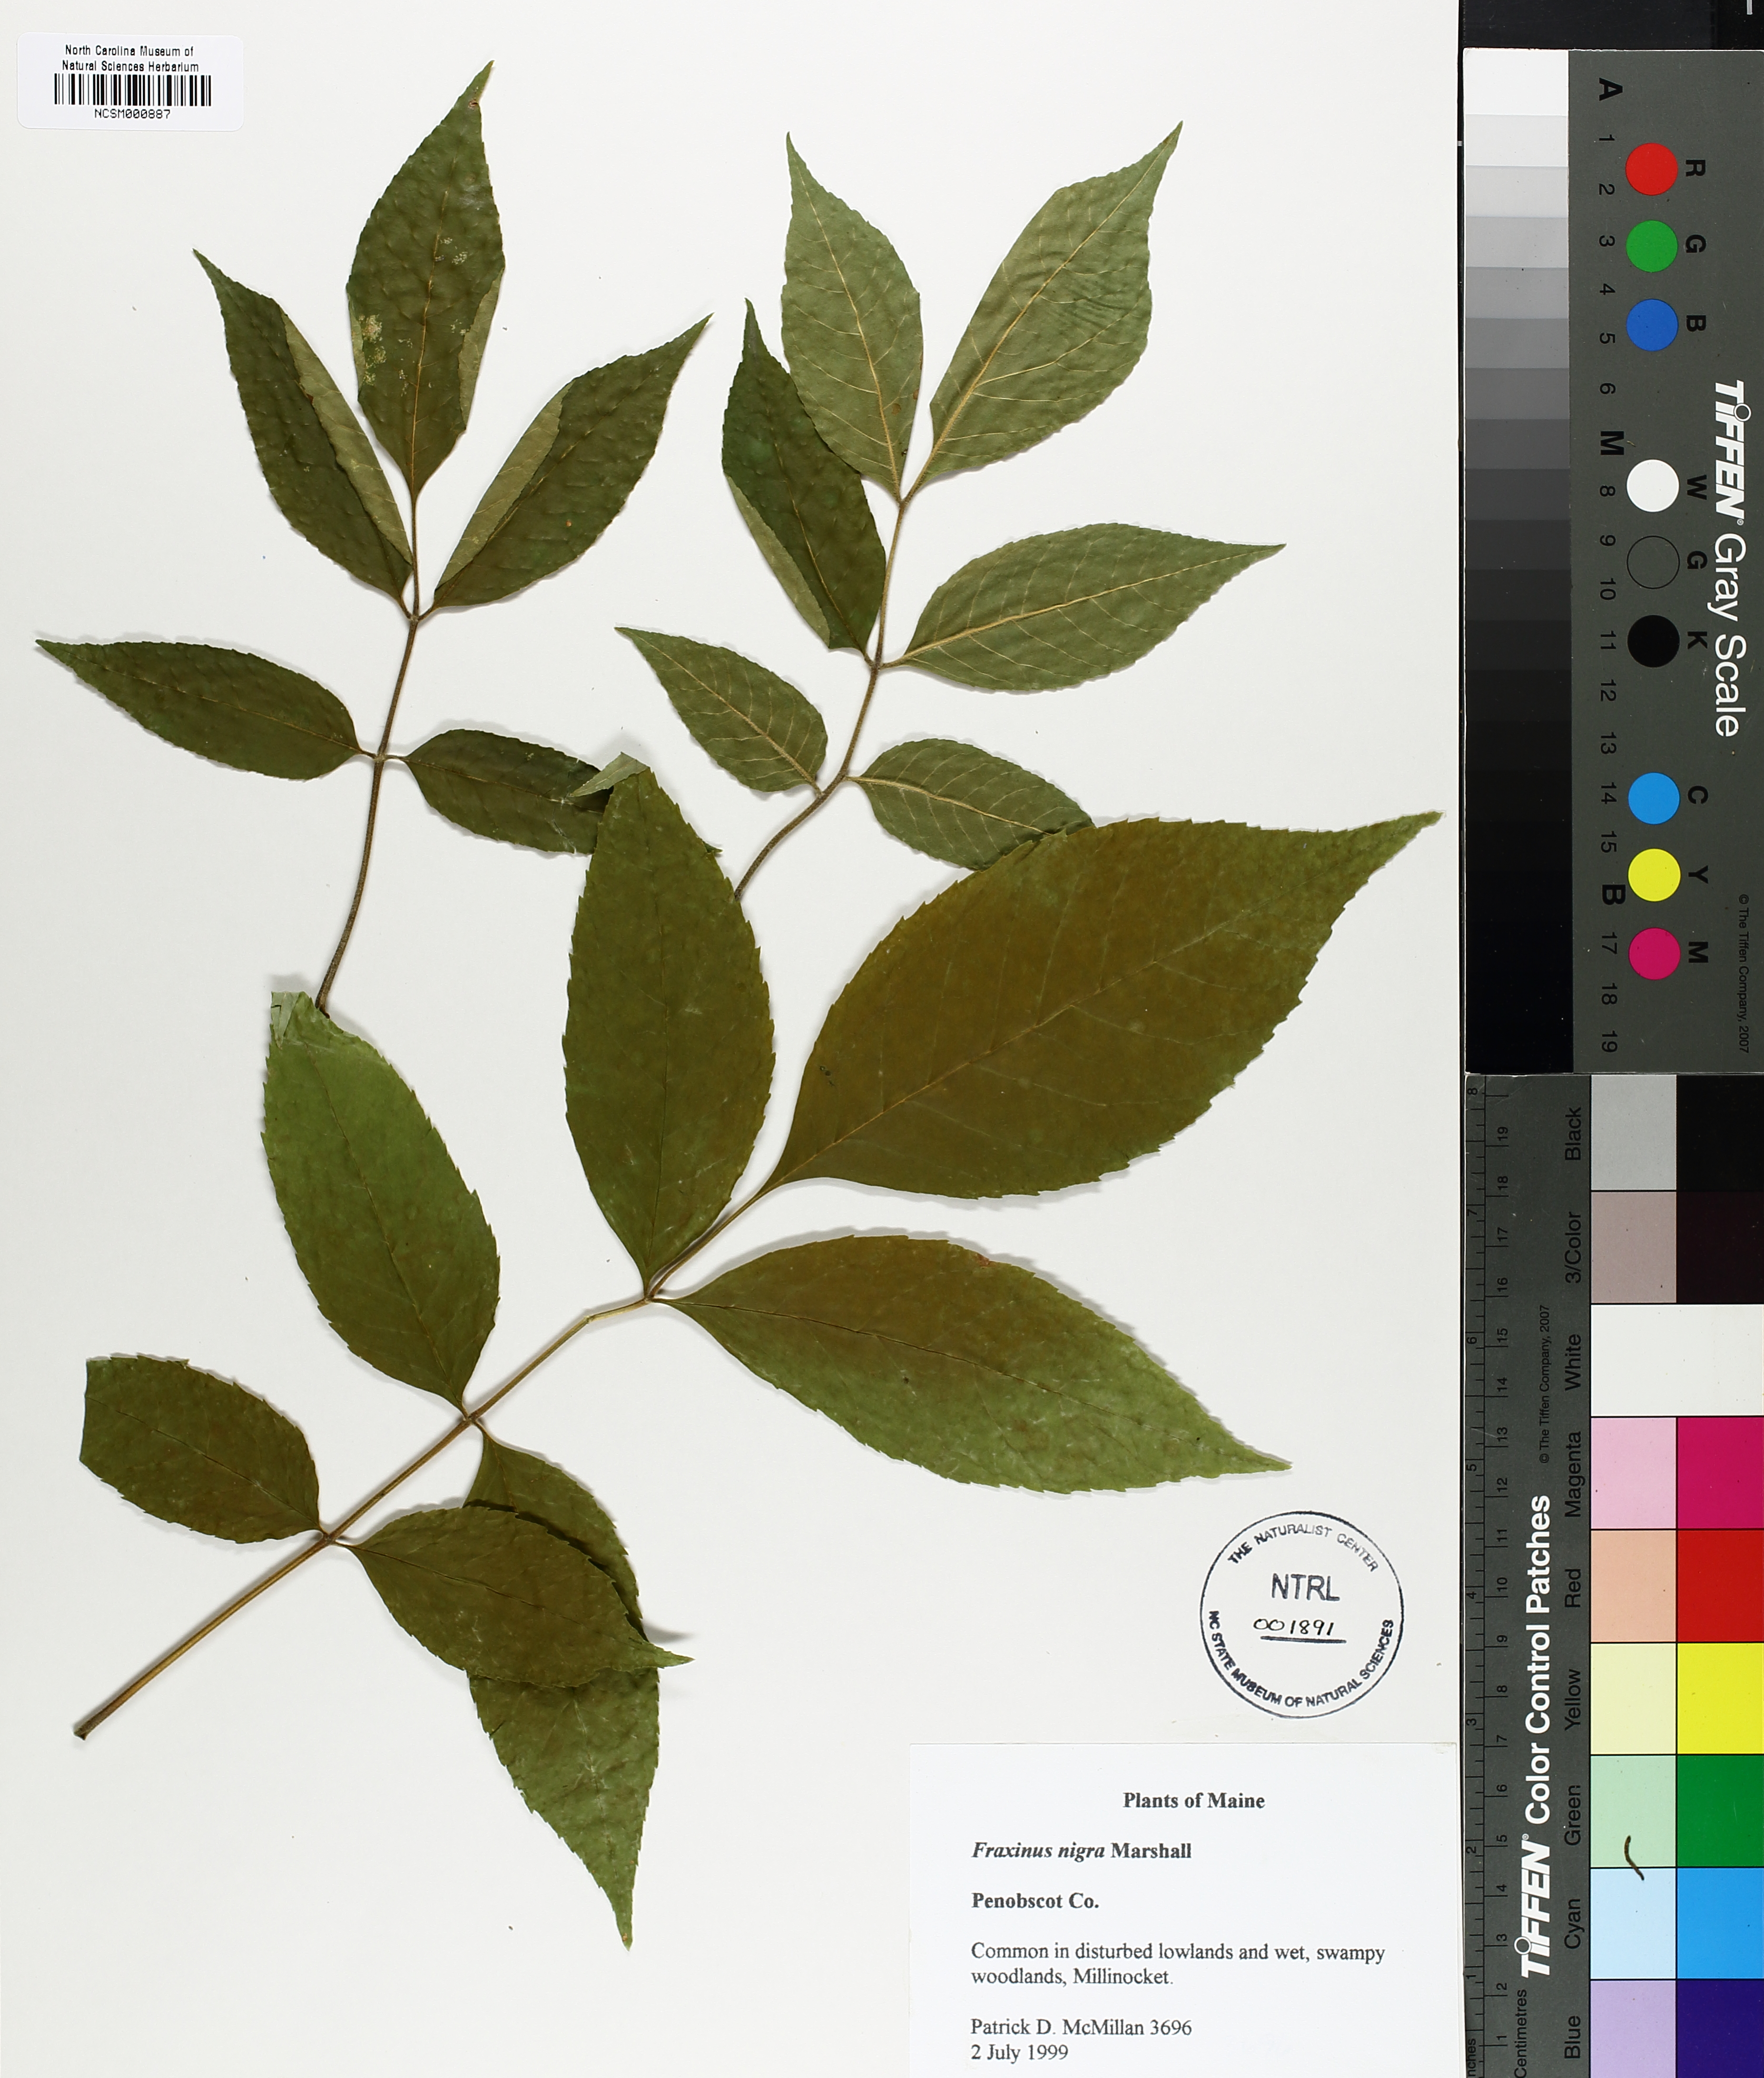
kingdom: Plantae
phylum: Tracheophyta
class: Magnoliopsida
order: Lamiales
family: Oleaceae
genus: Fraxinus
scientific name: Fraxinus nigra
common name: Black ash
